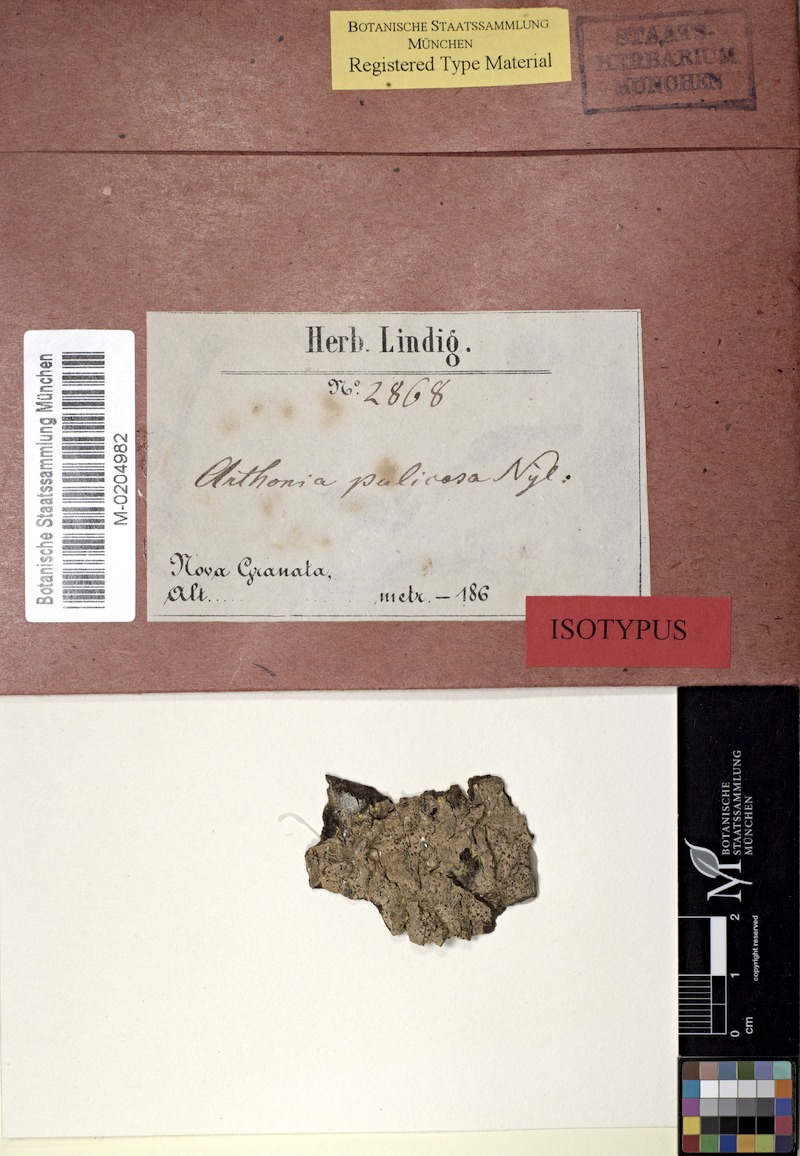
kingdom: Fungi
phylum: Ascomycota
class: Arthoniomycetes
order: Arthoniales
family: Arthoniaceae
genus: Arthonia
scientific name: Arthonia pulicosa
